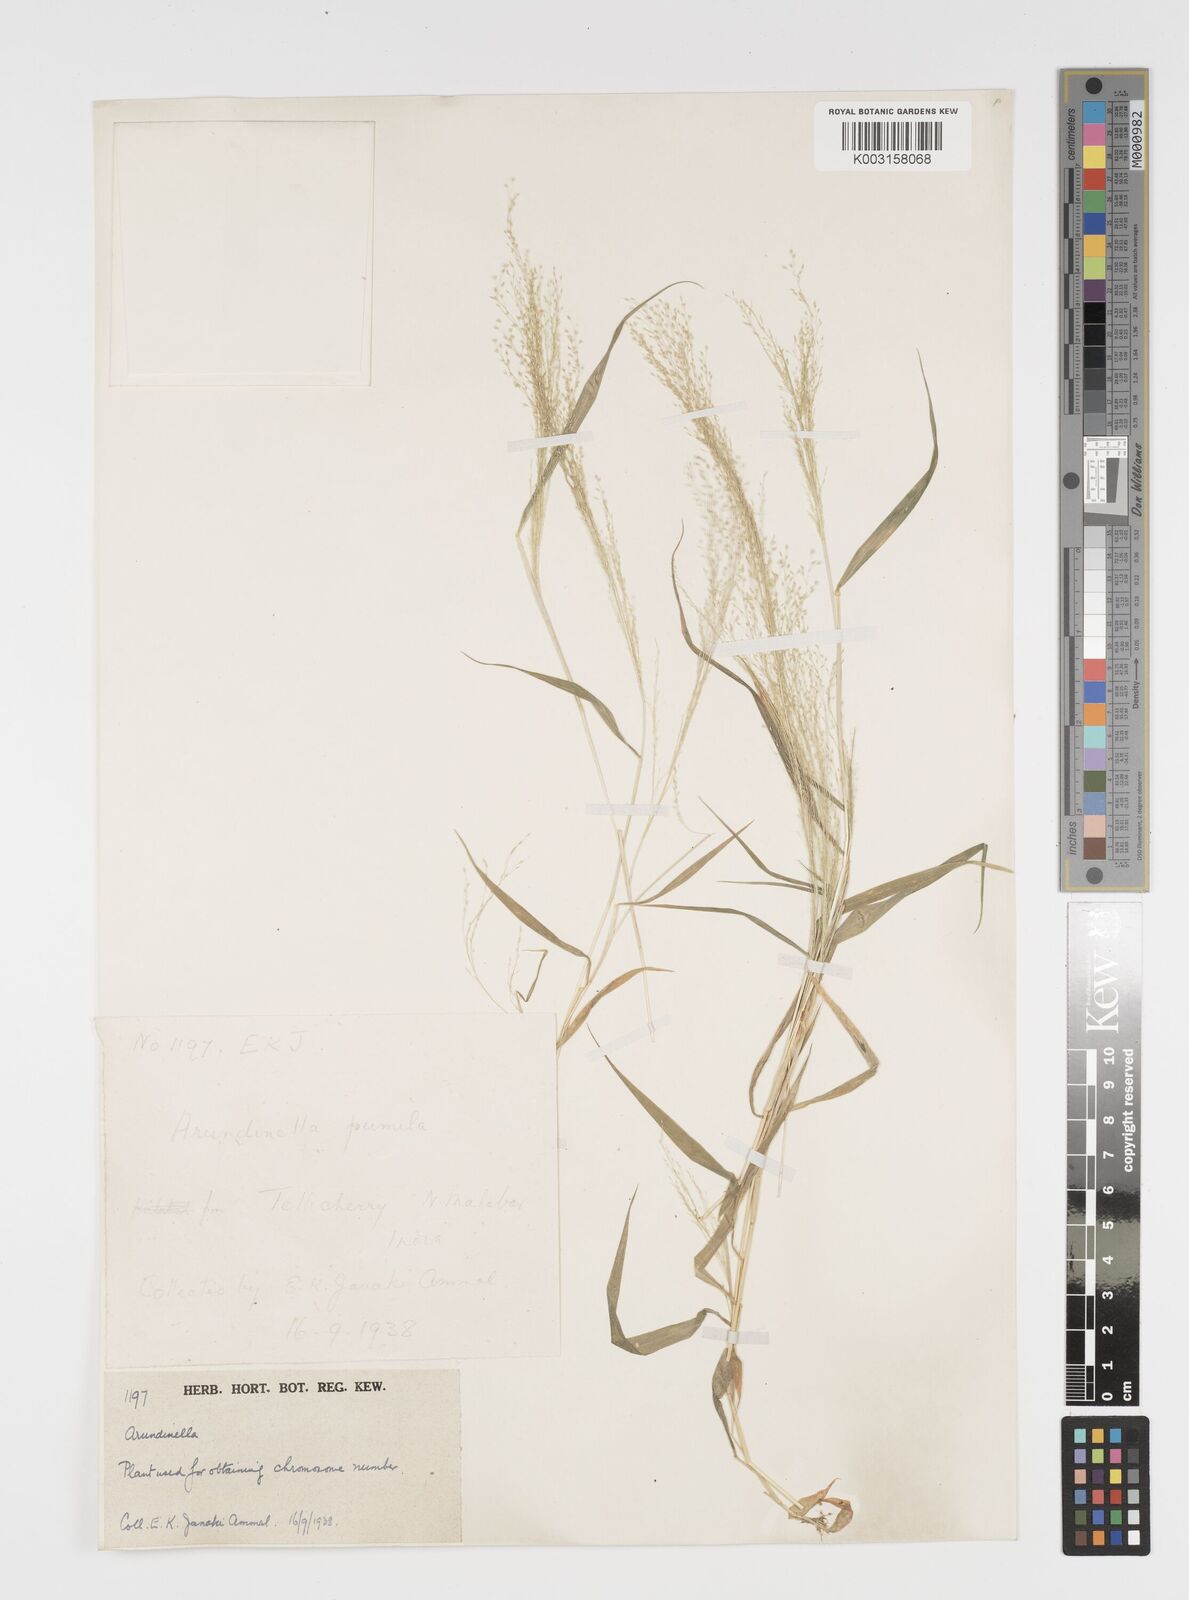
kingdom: Plantae
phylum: Tracheophyta
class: Liliopsida
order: Poales
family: Poaceae
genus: Arundinella
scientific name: Arundinella pumila
